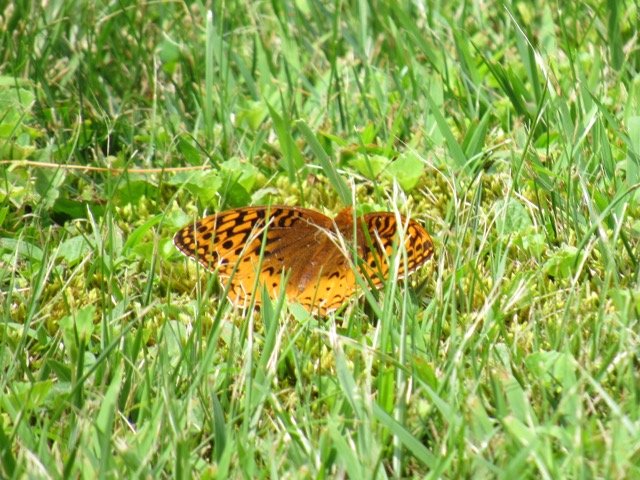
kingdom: Animalia
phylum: Arthropoda
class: Insecta
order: Lepidoptera
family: Nymphalidae
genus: Speyeria
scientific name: Speyeria cybele
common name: Great Spangled Fritillary
